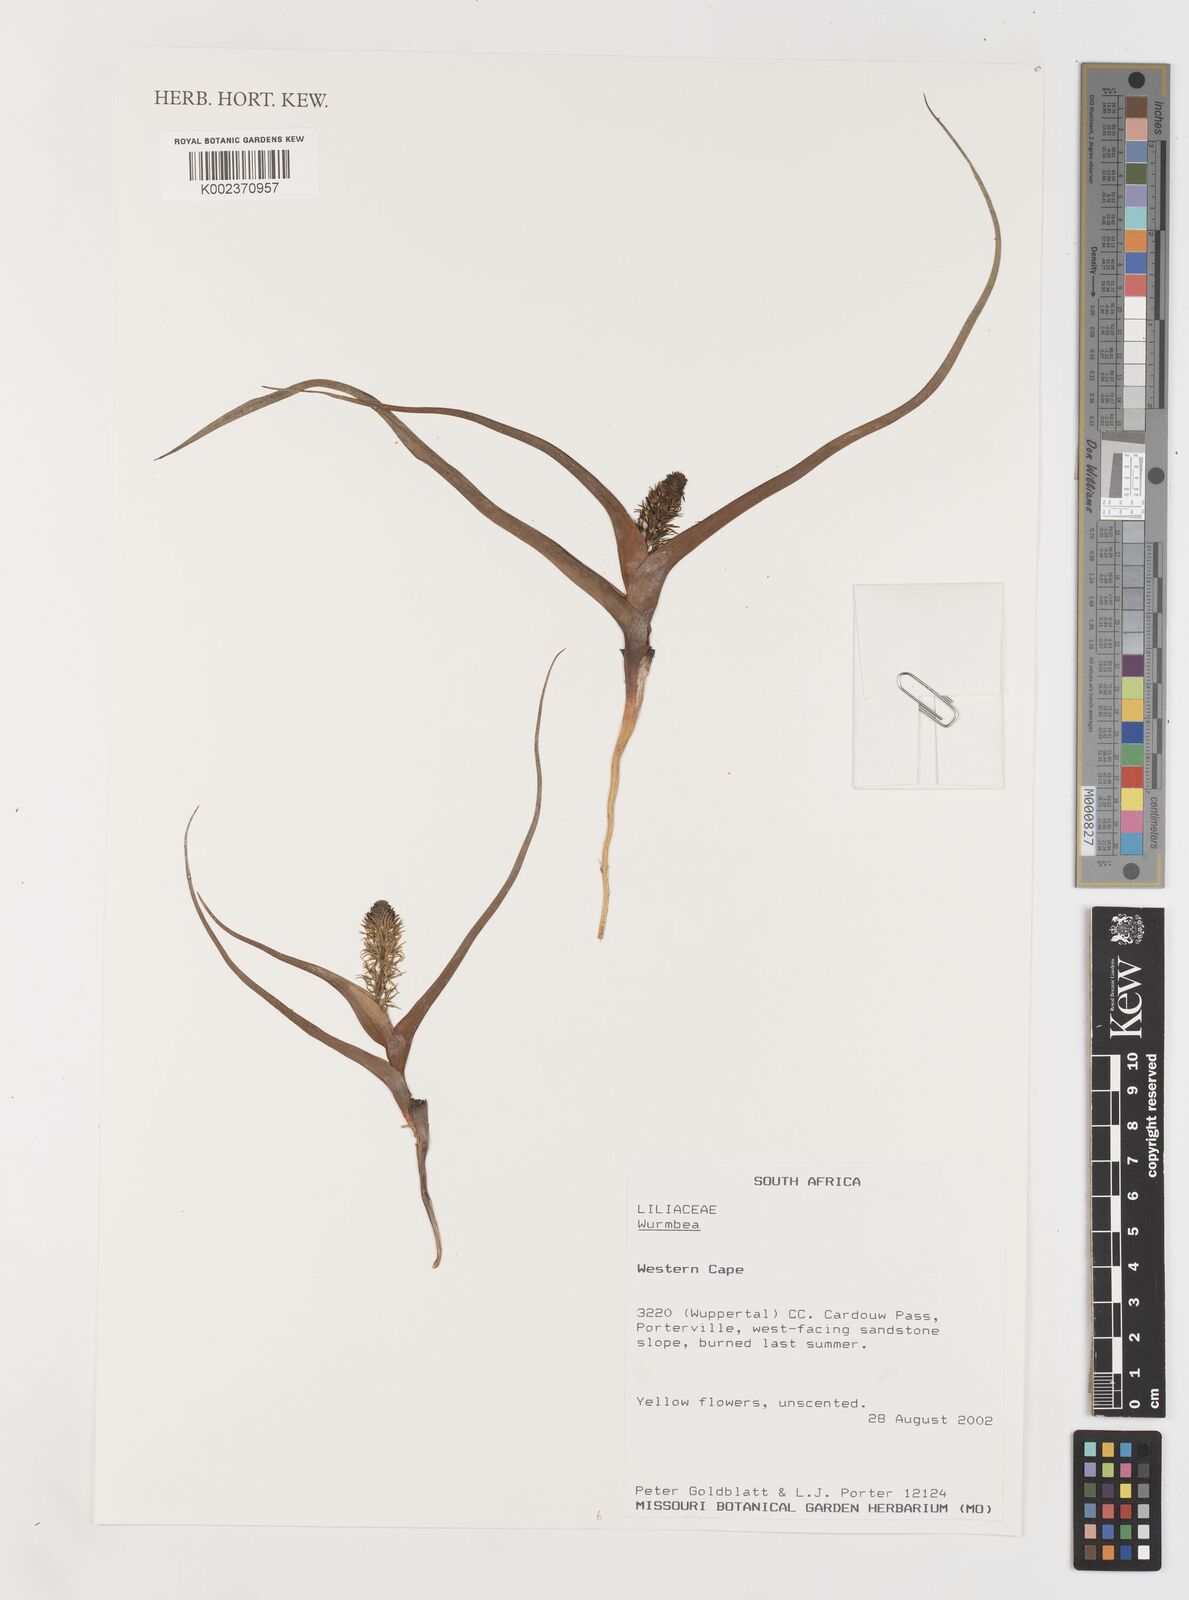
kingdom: Plantae
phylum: Tracheophyta
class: Liliopsida
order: Liliales
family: Colchicaceae
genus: Wurmbea
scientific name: Wurmbea
